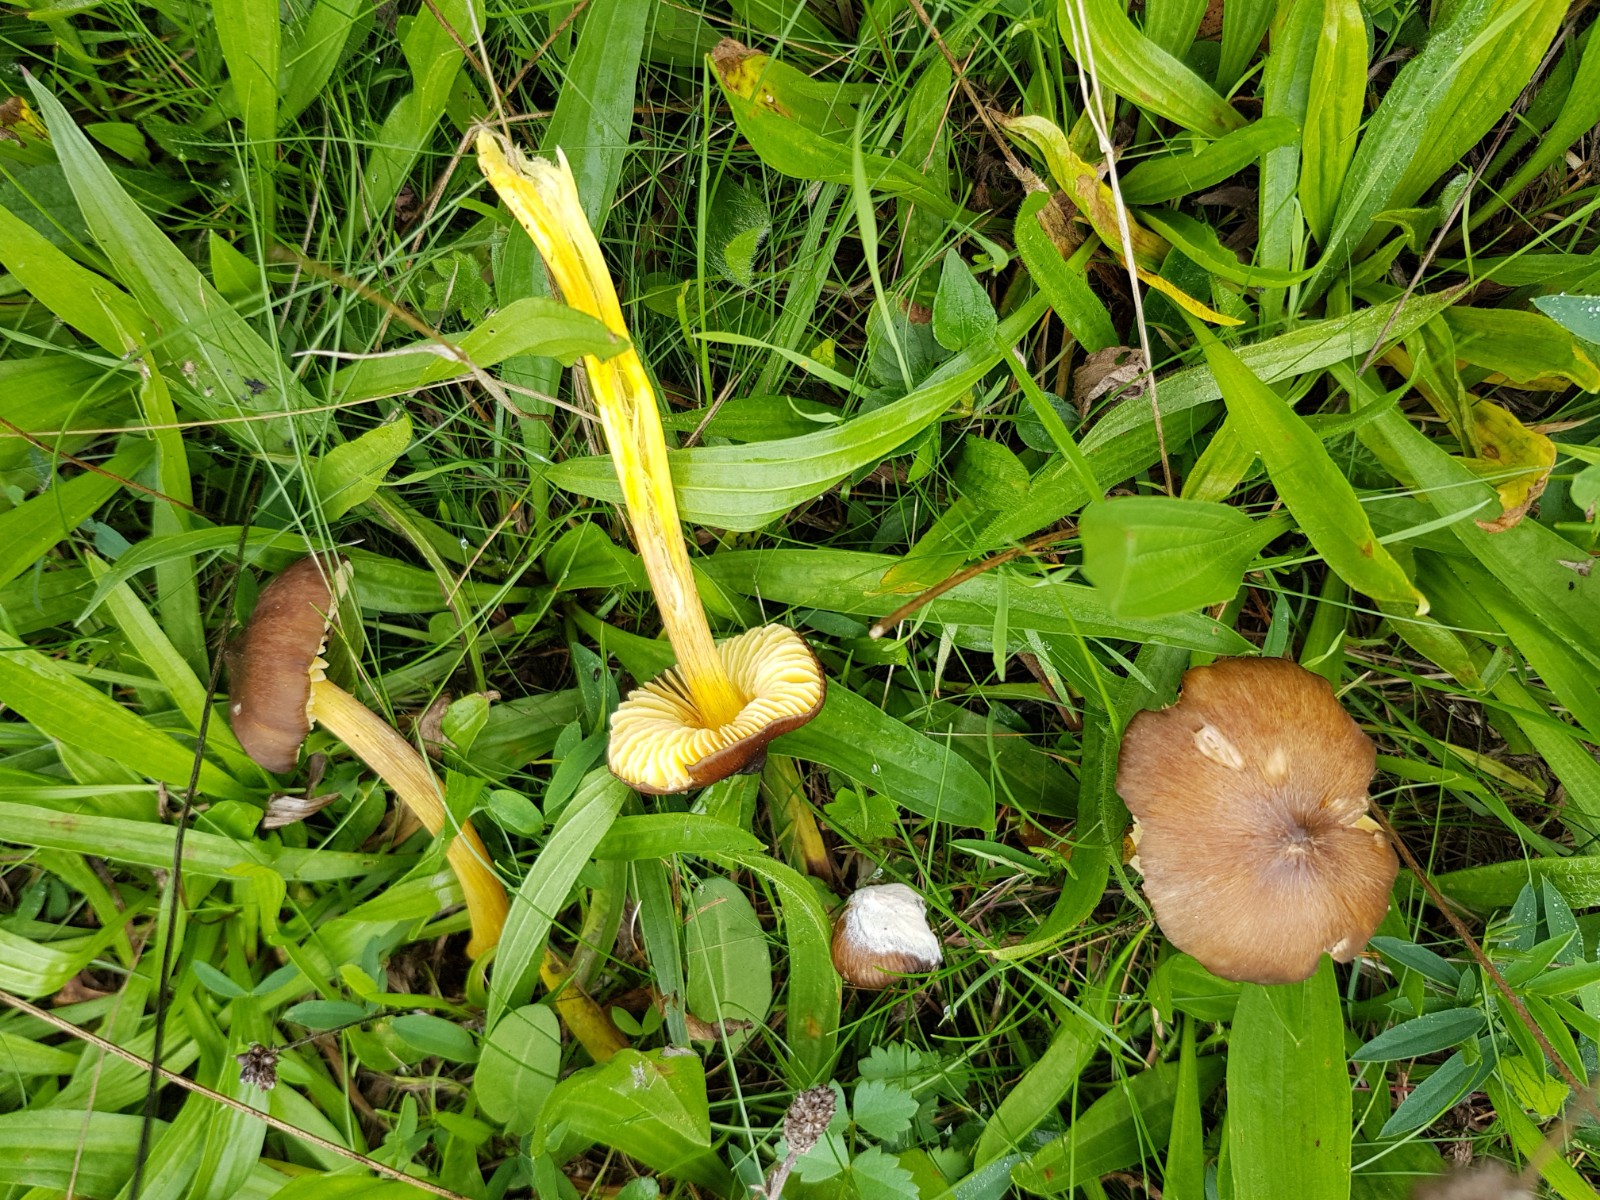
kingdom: Fungi
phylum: Basidiomycota
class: Agaricomycetes
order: Agaricales
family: Hygrophoraceae
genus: Hygrocybe
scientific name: Hygrocybe spadicea
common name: daddelbrun vokshat
